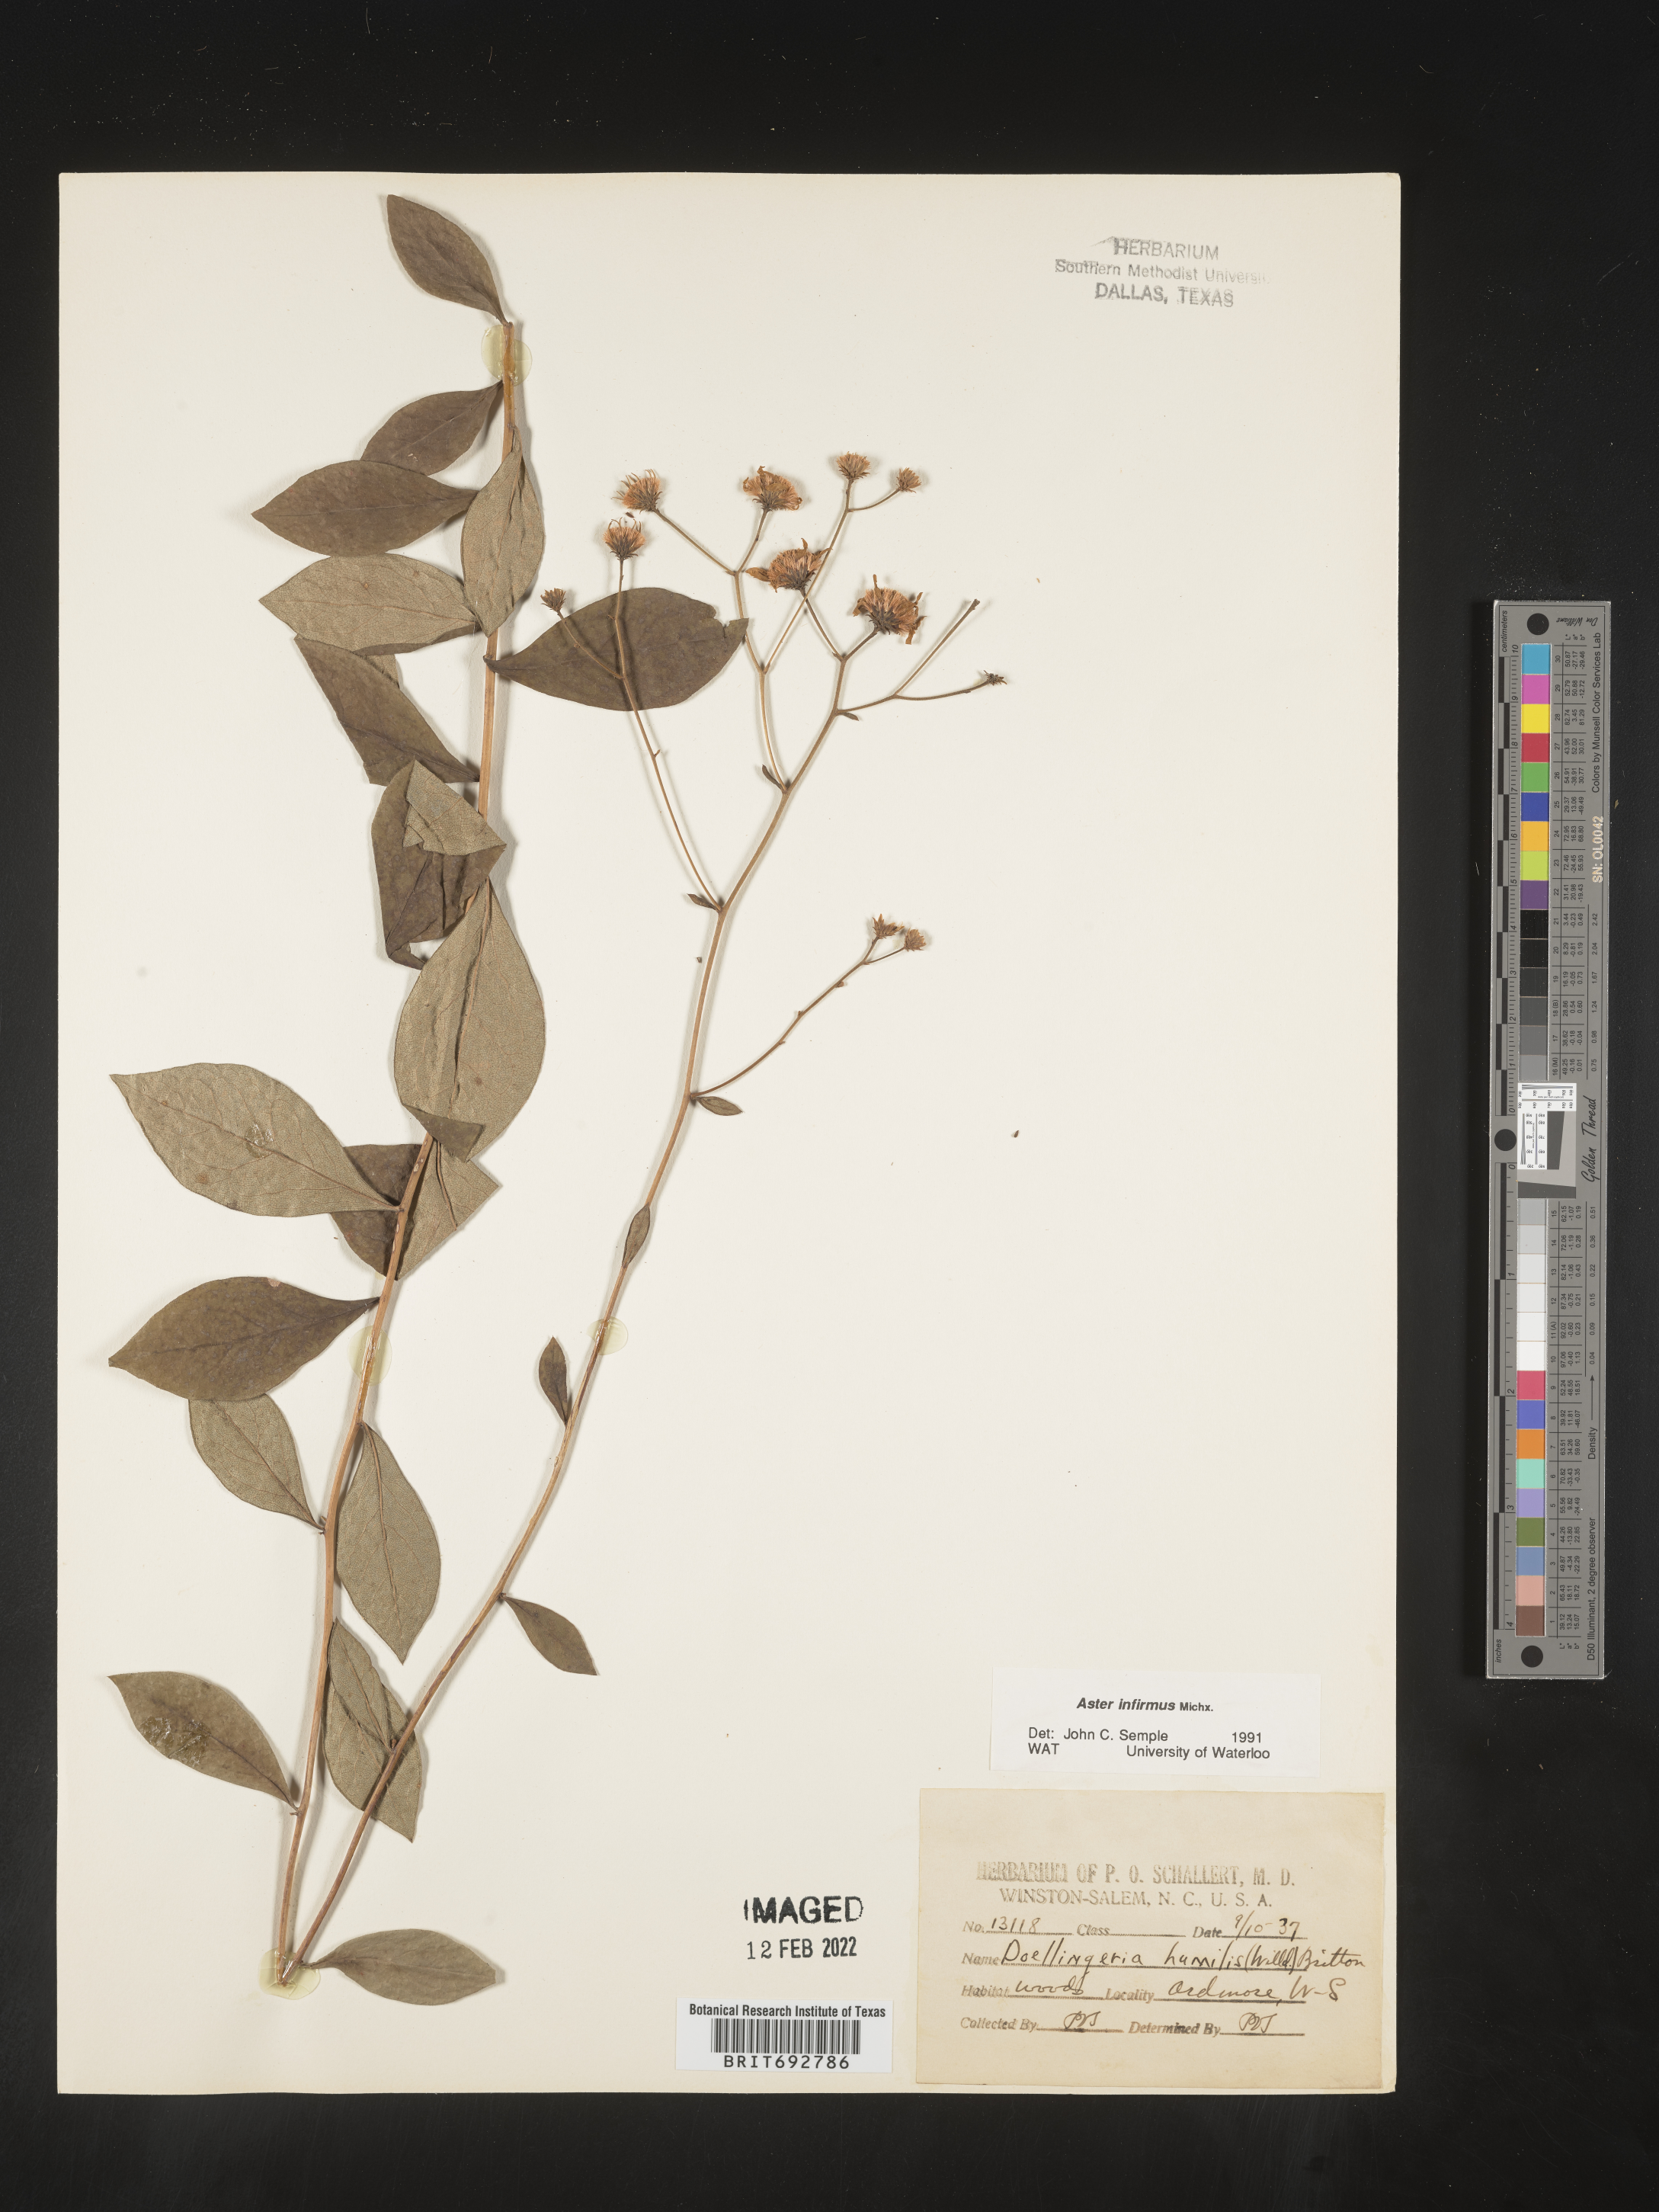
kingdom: Plantae
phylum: Tracheophyta
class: Magnoliopsida
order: Asterales
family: Asteraceae
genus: Doellingeria
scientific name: Doellingeria infirma
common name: Appalachian flat-top aster
